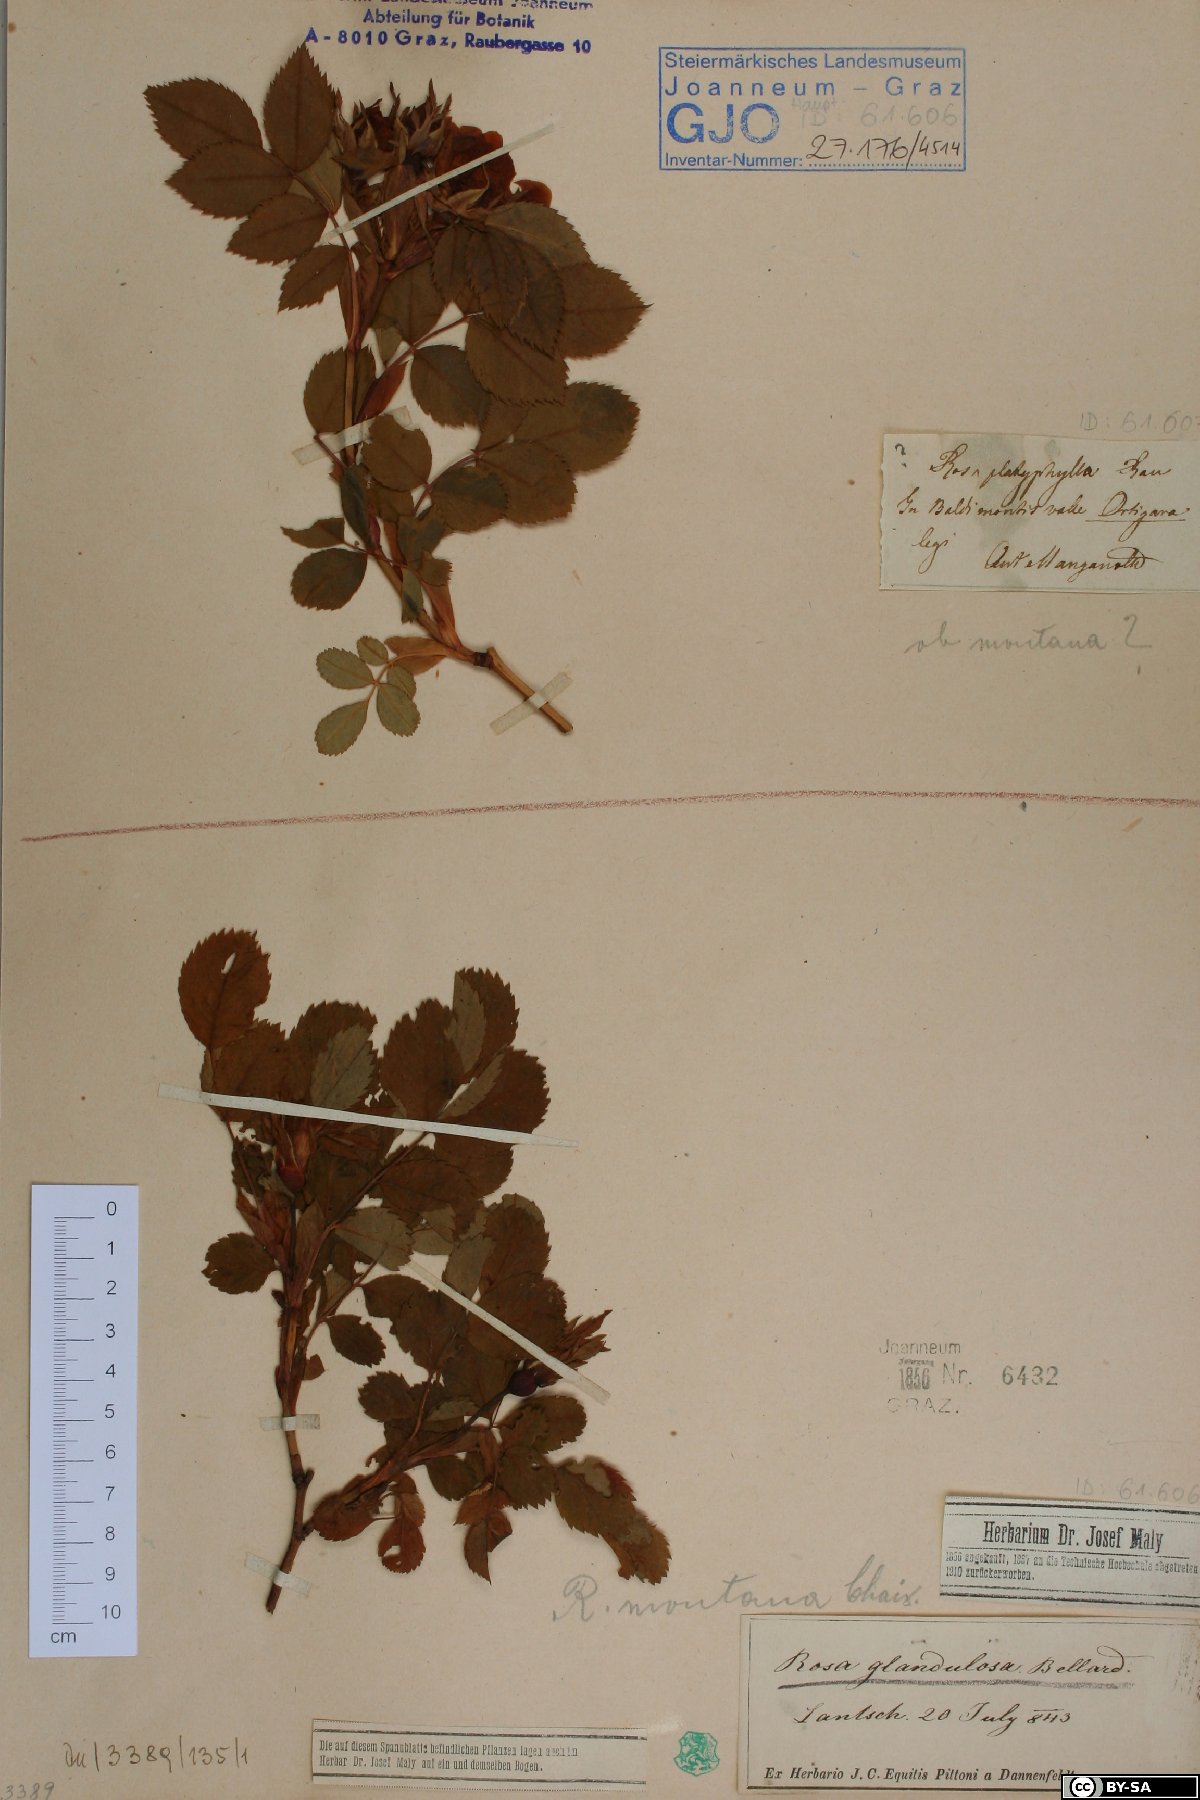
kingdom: Plantae
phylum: Tracheophyta
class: Magnoliopsida
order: Rosales
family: Rosaceae
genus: Rosa
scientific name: Rosa montana
